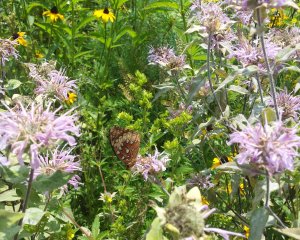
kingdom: Animalia
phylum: Arthropoda
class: Insecta
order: Lepidoptera
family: Nymphalidae
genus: Speyeria
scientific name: Speyeria cybele
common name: Great Spangled Fritillary
